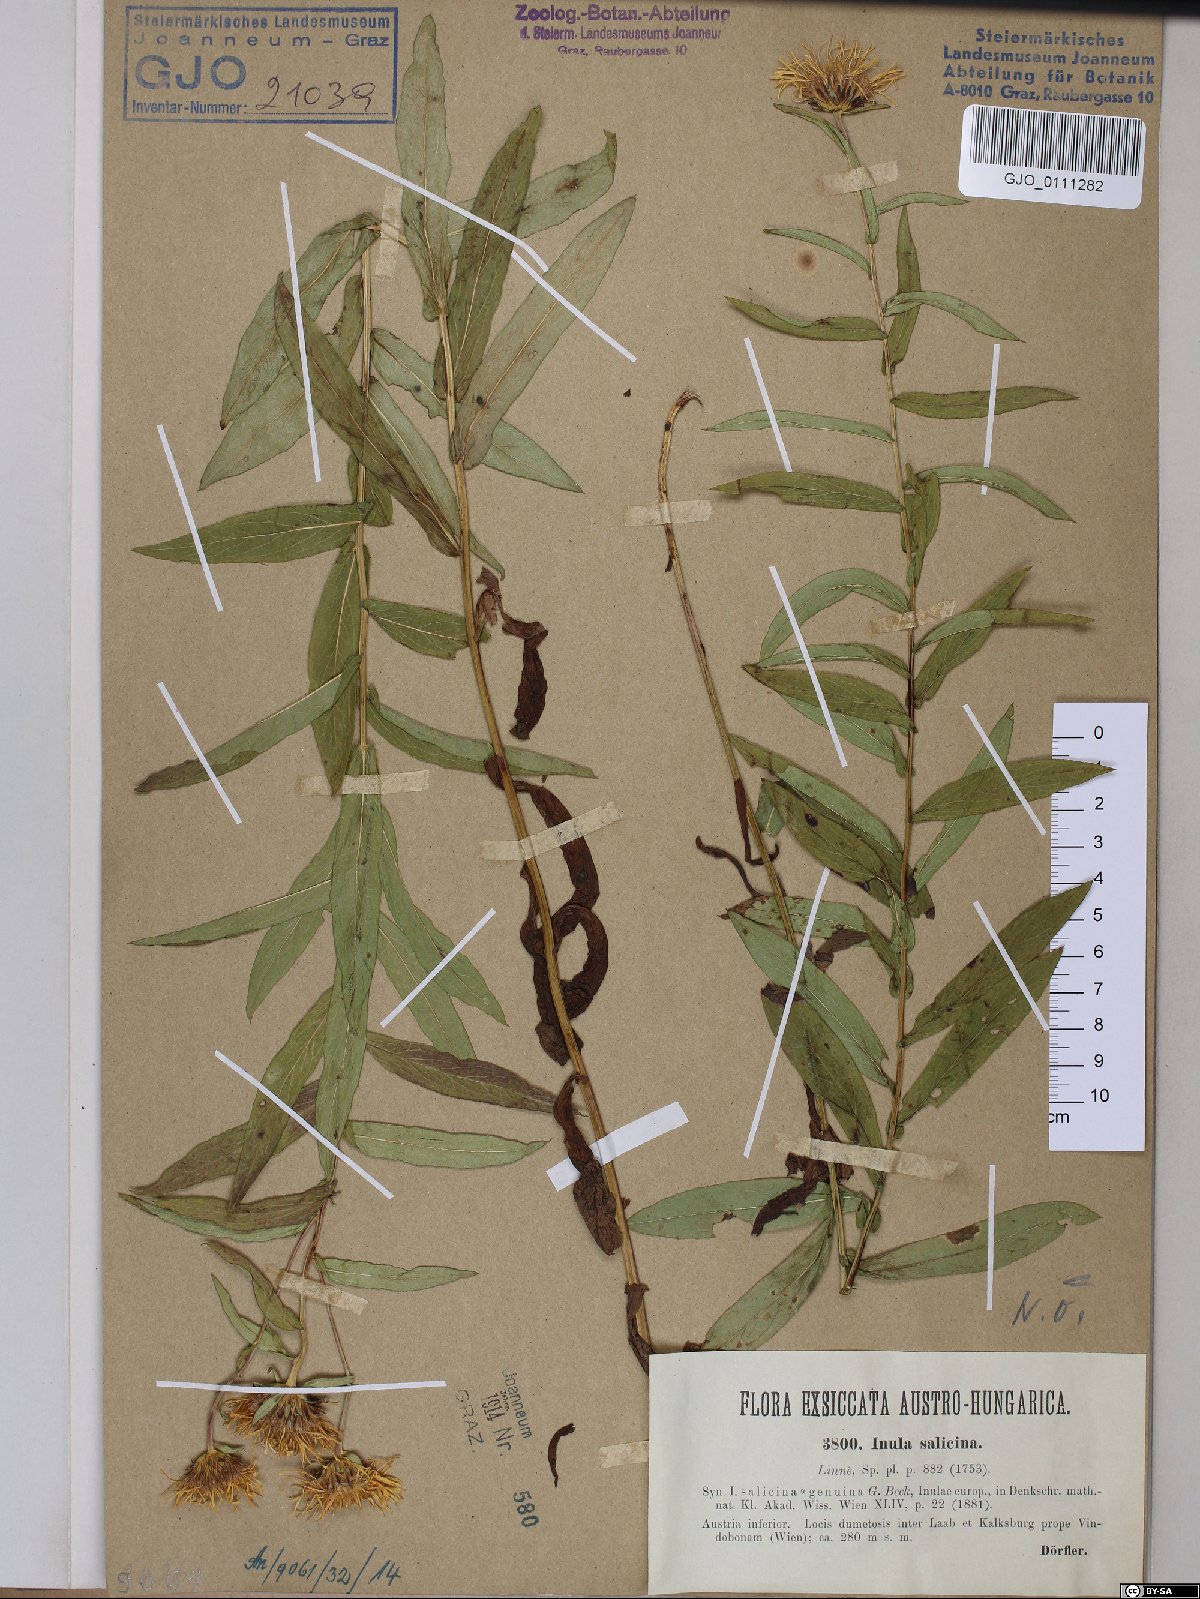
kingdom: Plantae
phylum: Tracheophyta
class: Magnoliopsida
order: Asterales
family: Asteraceae
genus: Pentanema
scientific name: Pentanema salicinum
